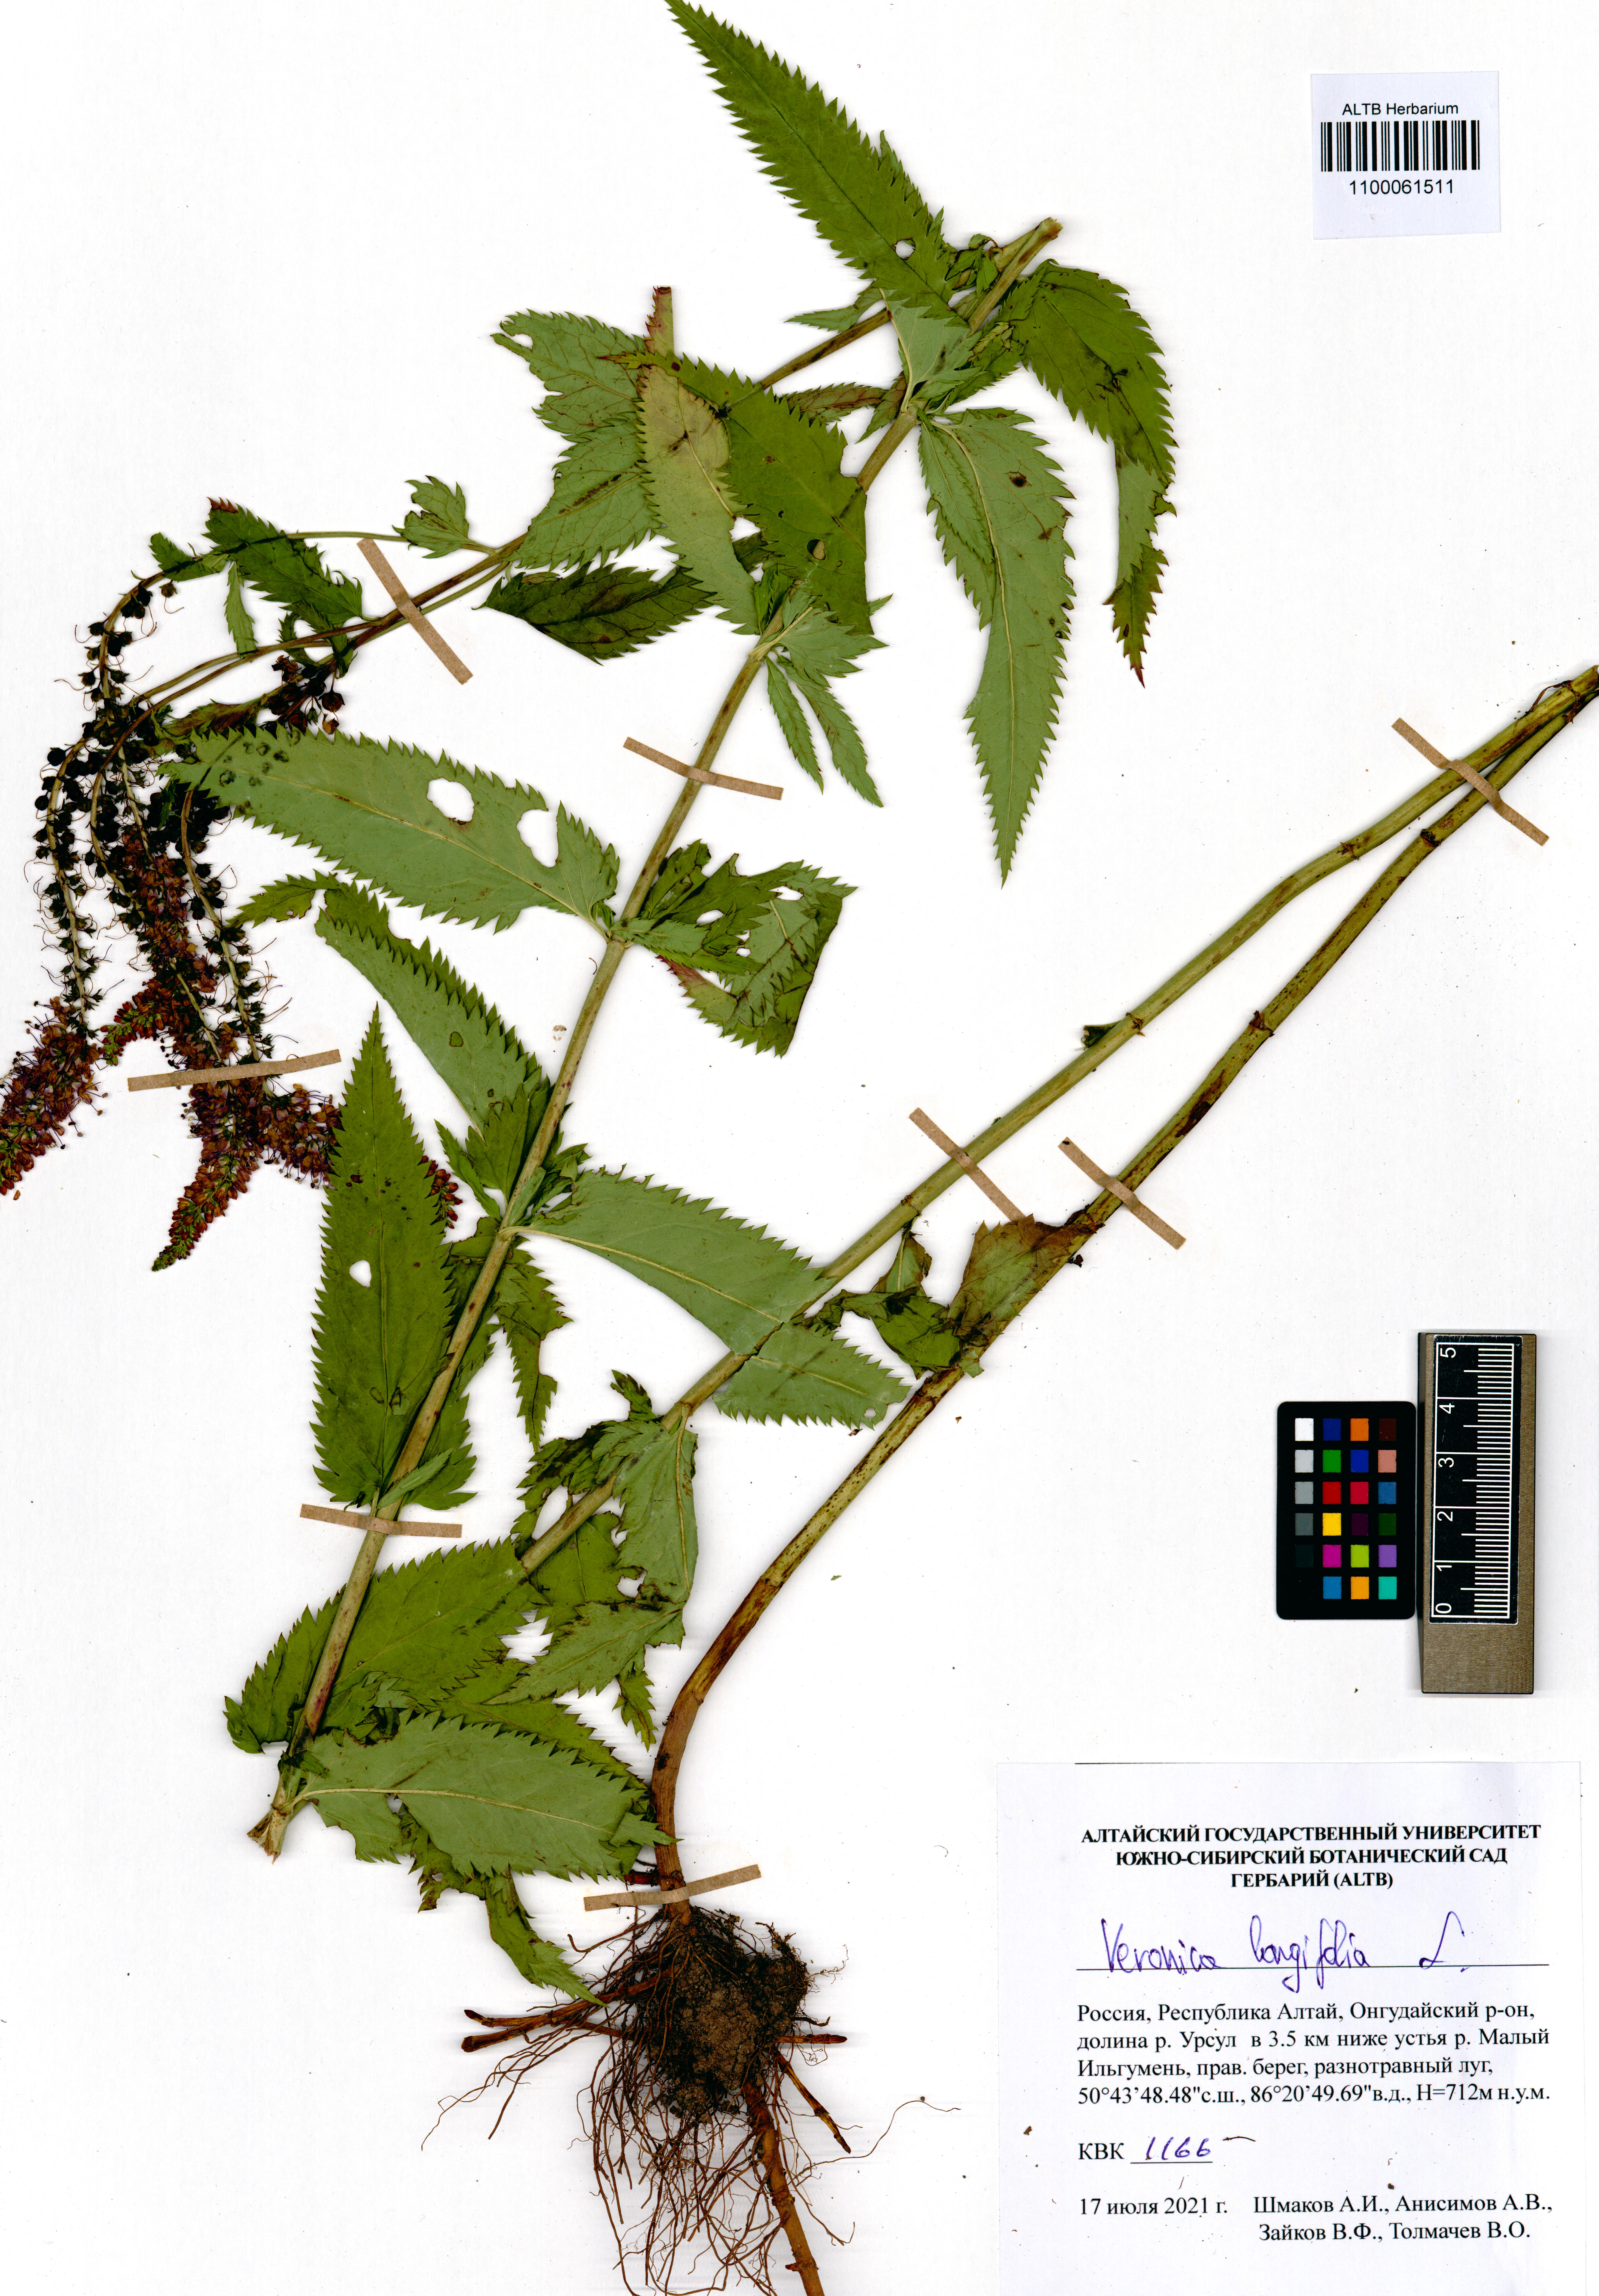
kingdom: Plantae
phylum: Tracheophyta
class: Magnoliopsida
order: Lamiales
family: Plantaginaceae
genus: Veronica
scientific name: Veronica longifolia
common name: Garden speedwell
